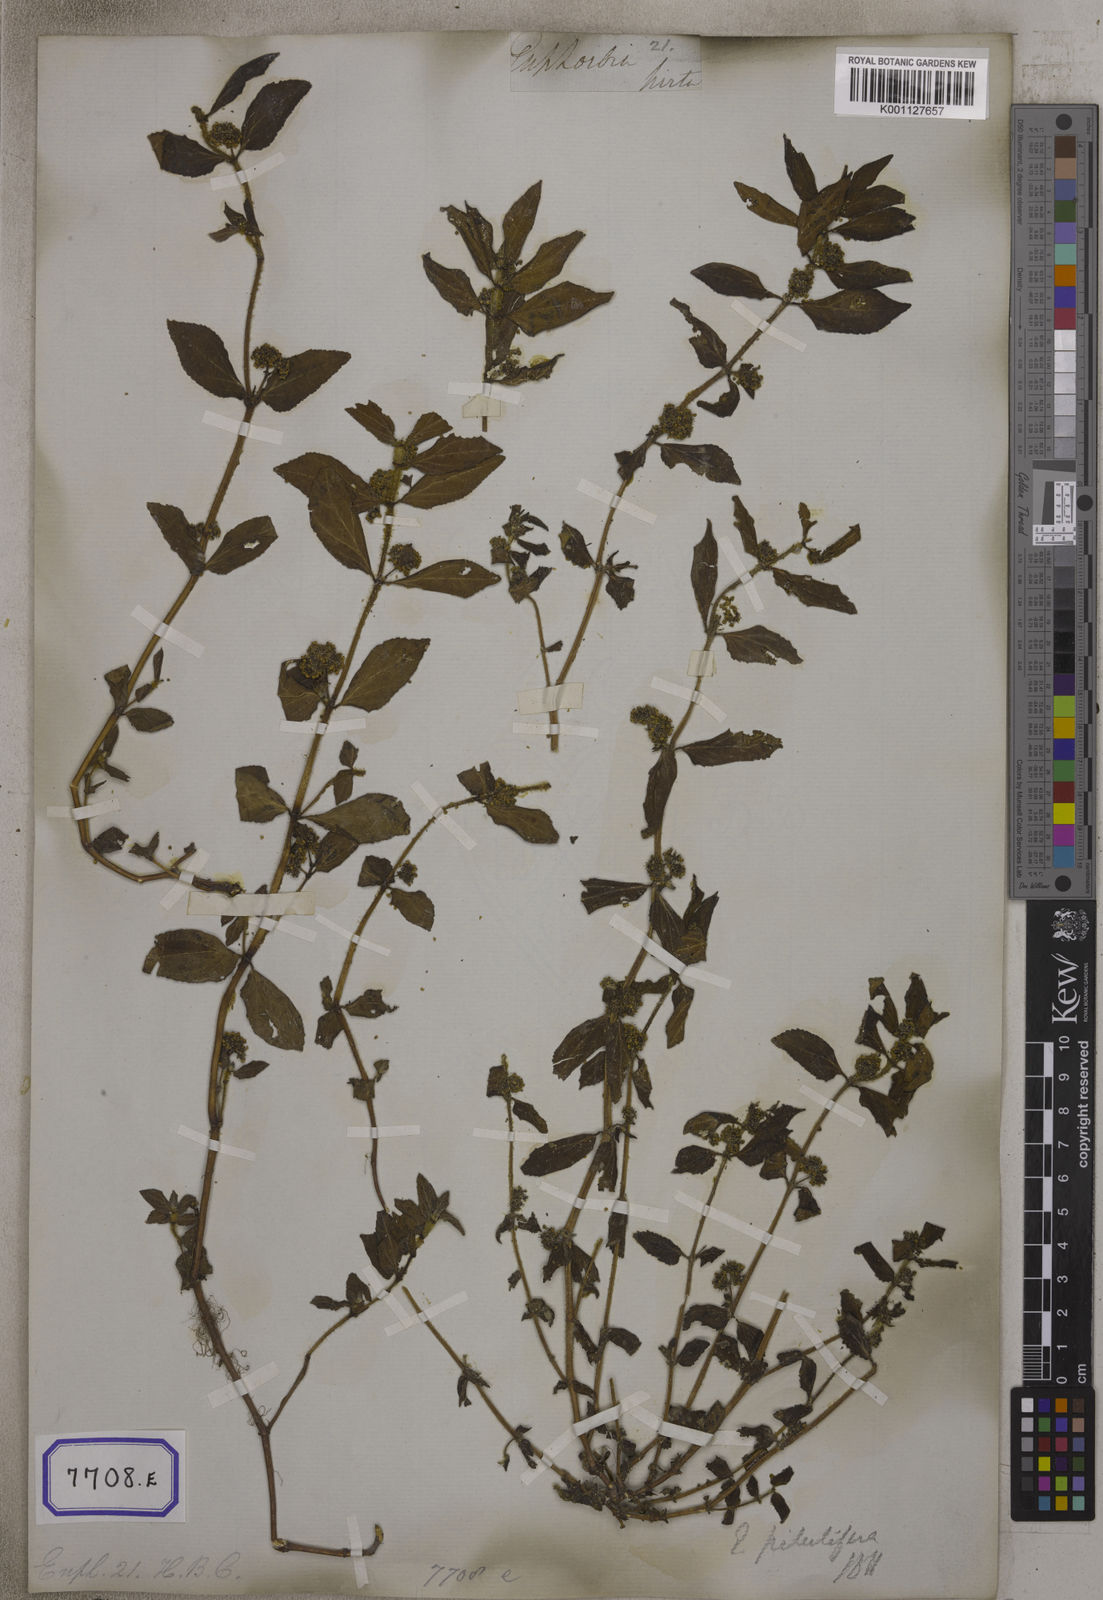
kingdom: Plantae
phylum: Tracheophyta
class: Magnoliopsida
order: Malpighiales
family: Euphorbiaceae
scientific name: Euphorbiaceae
